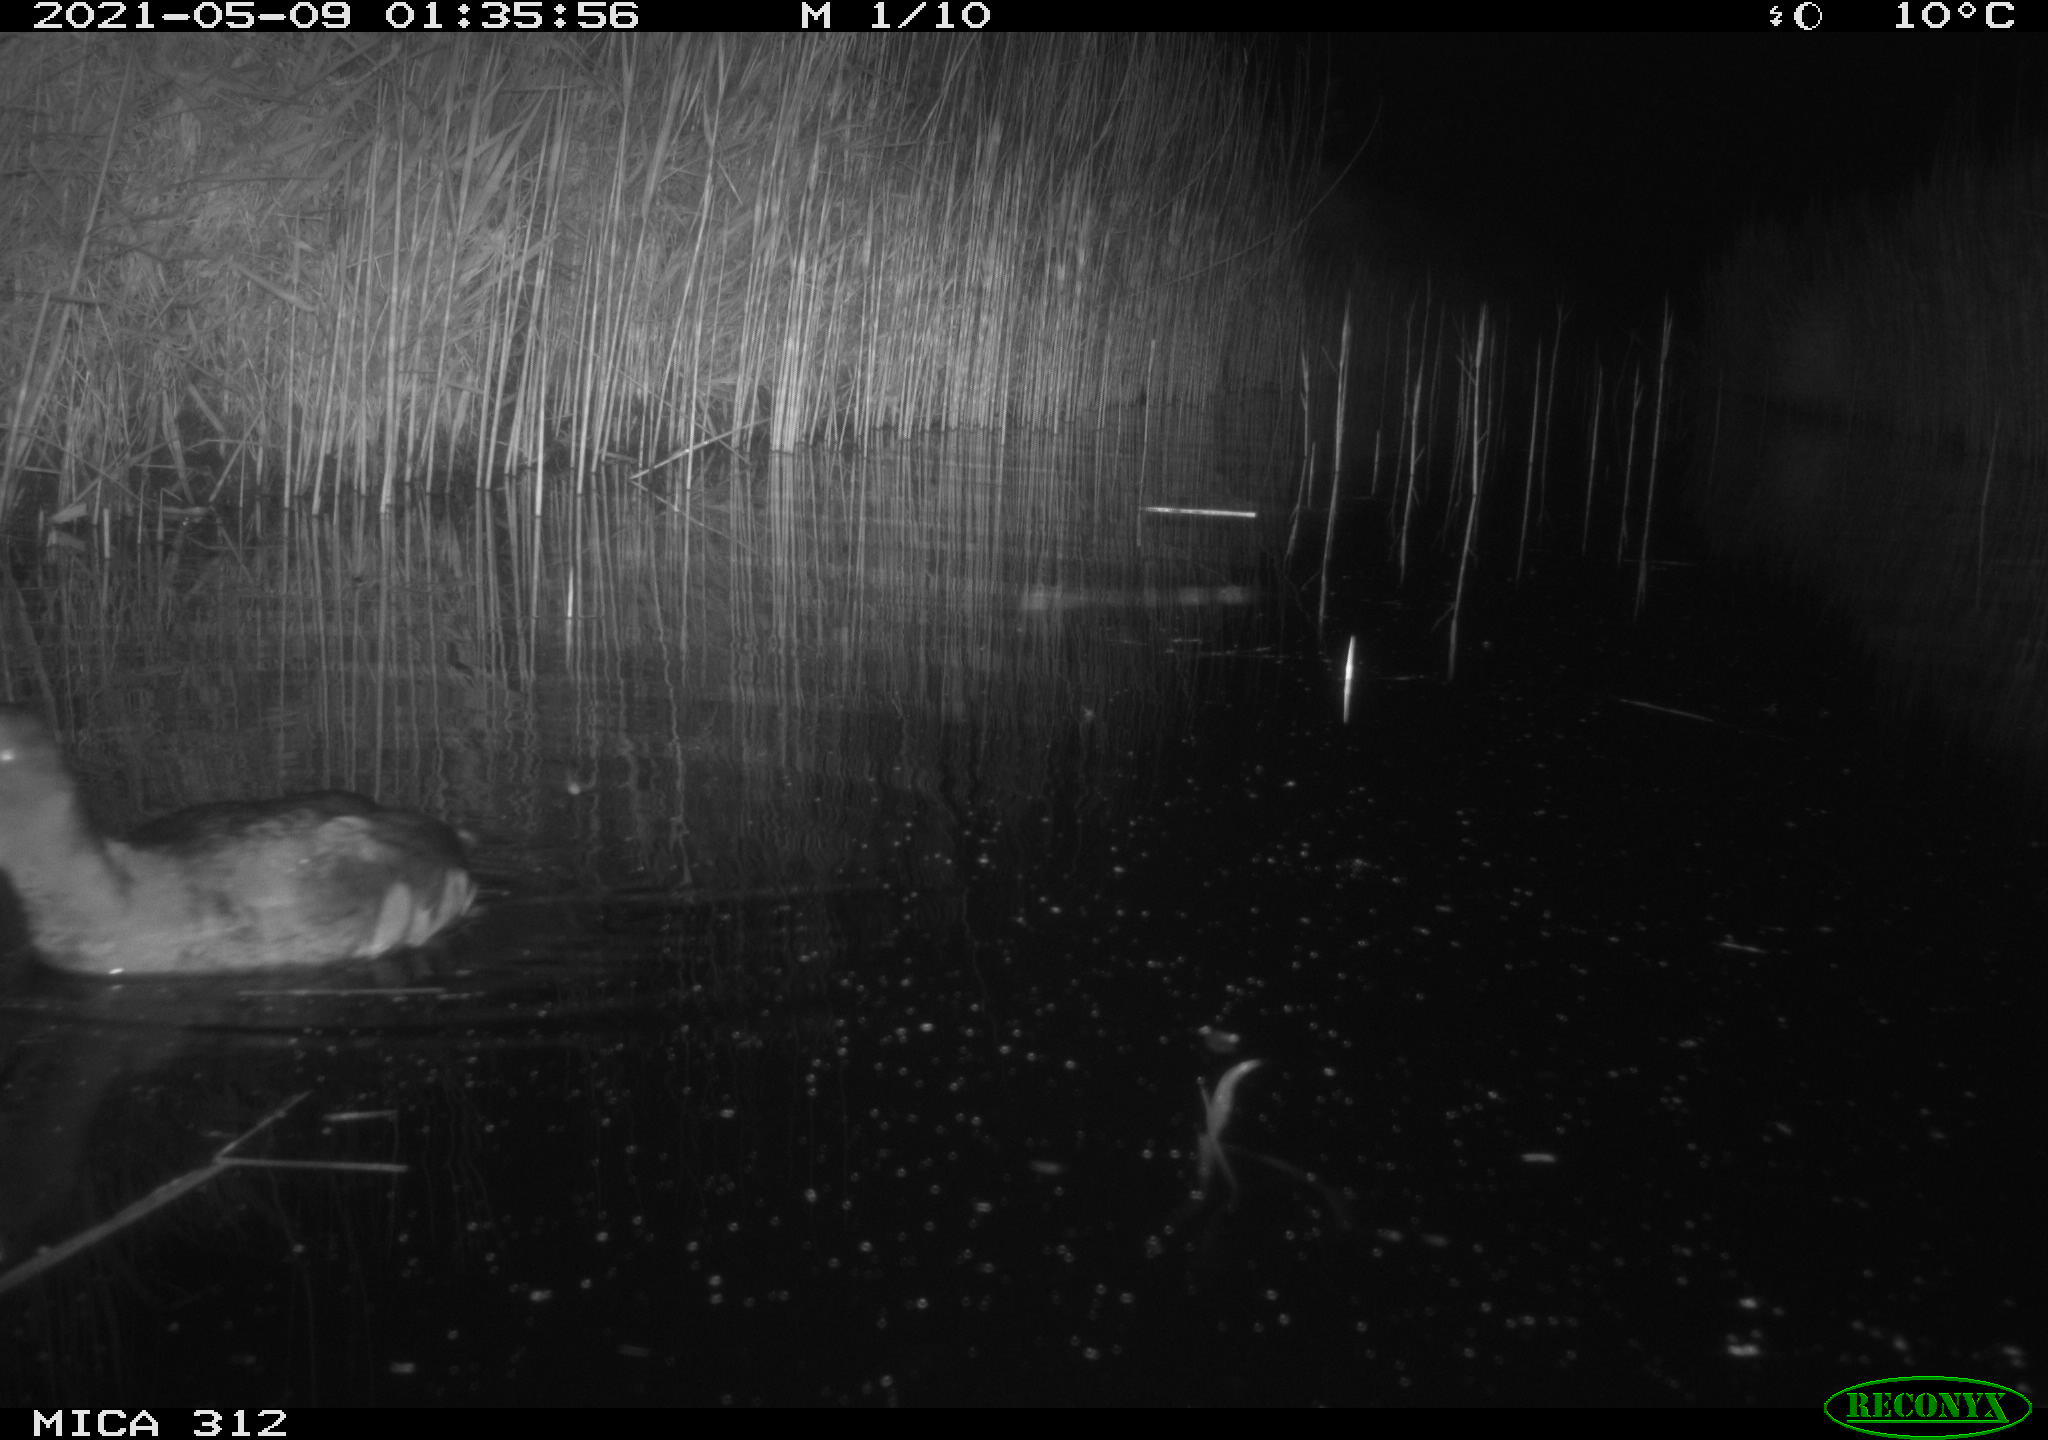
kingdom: Animalia
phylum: Chordata
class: Aves
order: Gruiformes
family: Rallidae
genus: Fulica
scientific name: Fulica atra
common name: Eurasian coot
